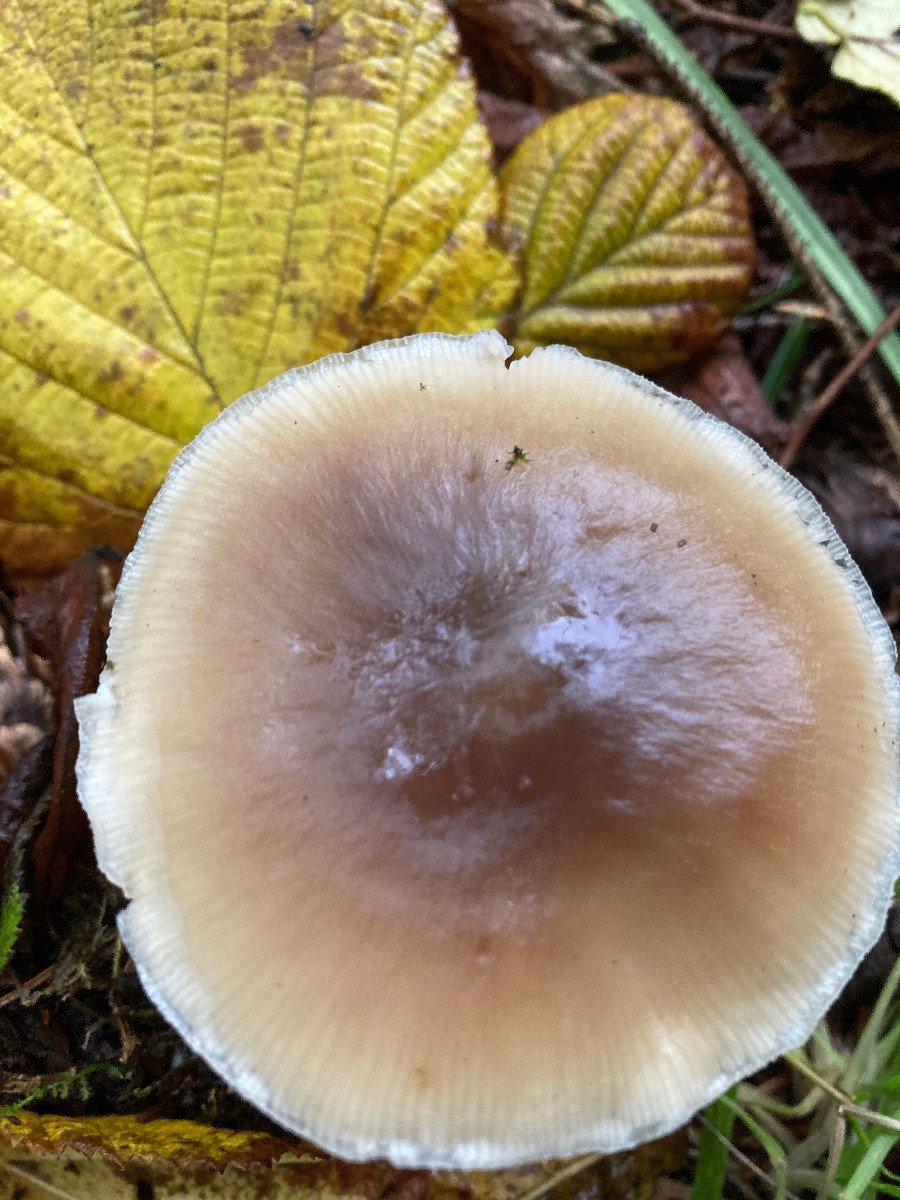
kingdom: Fungi
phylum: Basidiomycota
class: Agaricomycetes
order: Agaricales
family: Omphalotaceae
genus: Rhodocollybia
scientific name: Rhodocollybia asema
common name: horngrå fladhat
